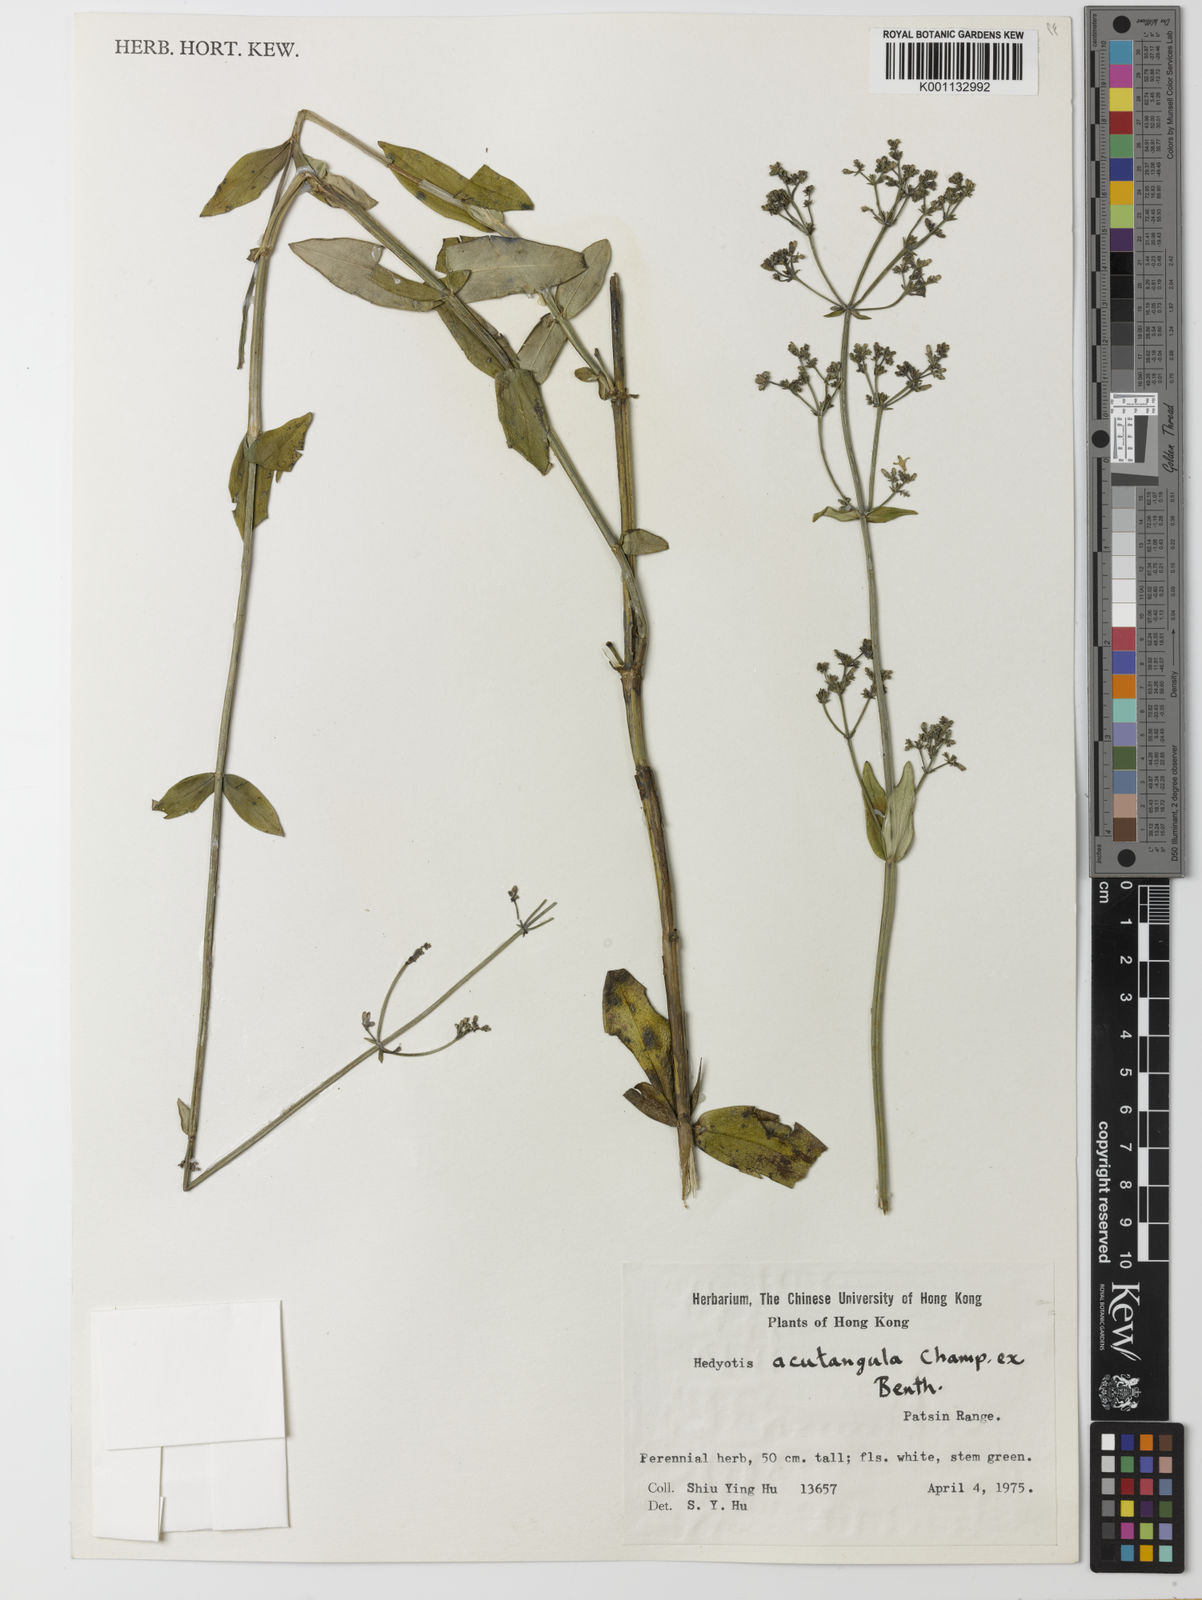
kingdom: Plantae
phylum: Tracheophyta
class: Magnoliopsida
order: Gentianales
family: Rubiaceae
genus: Hedyotis
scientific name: Hedyotis acutangula
